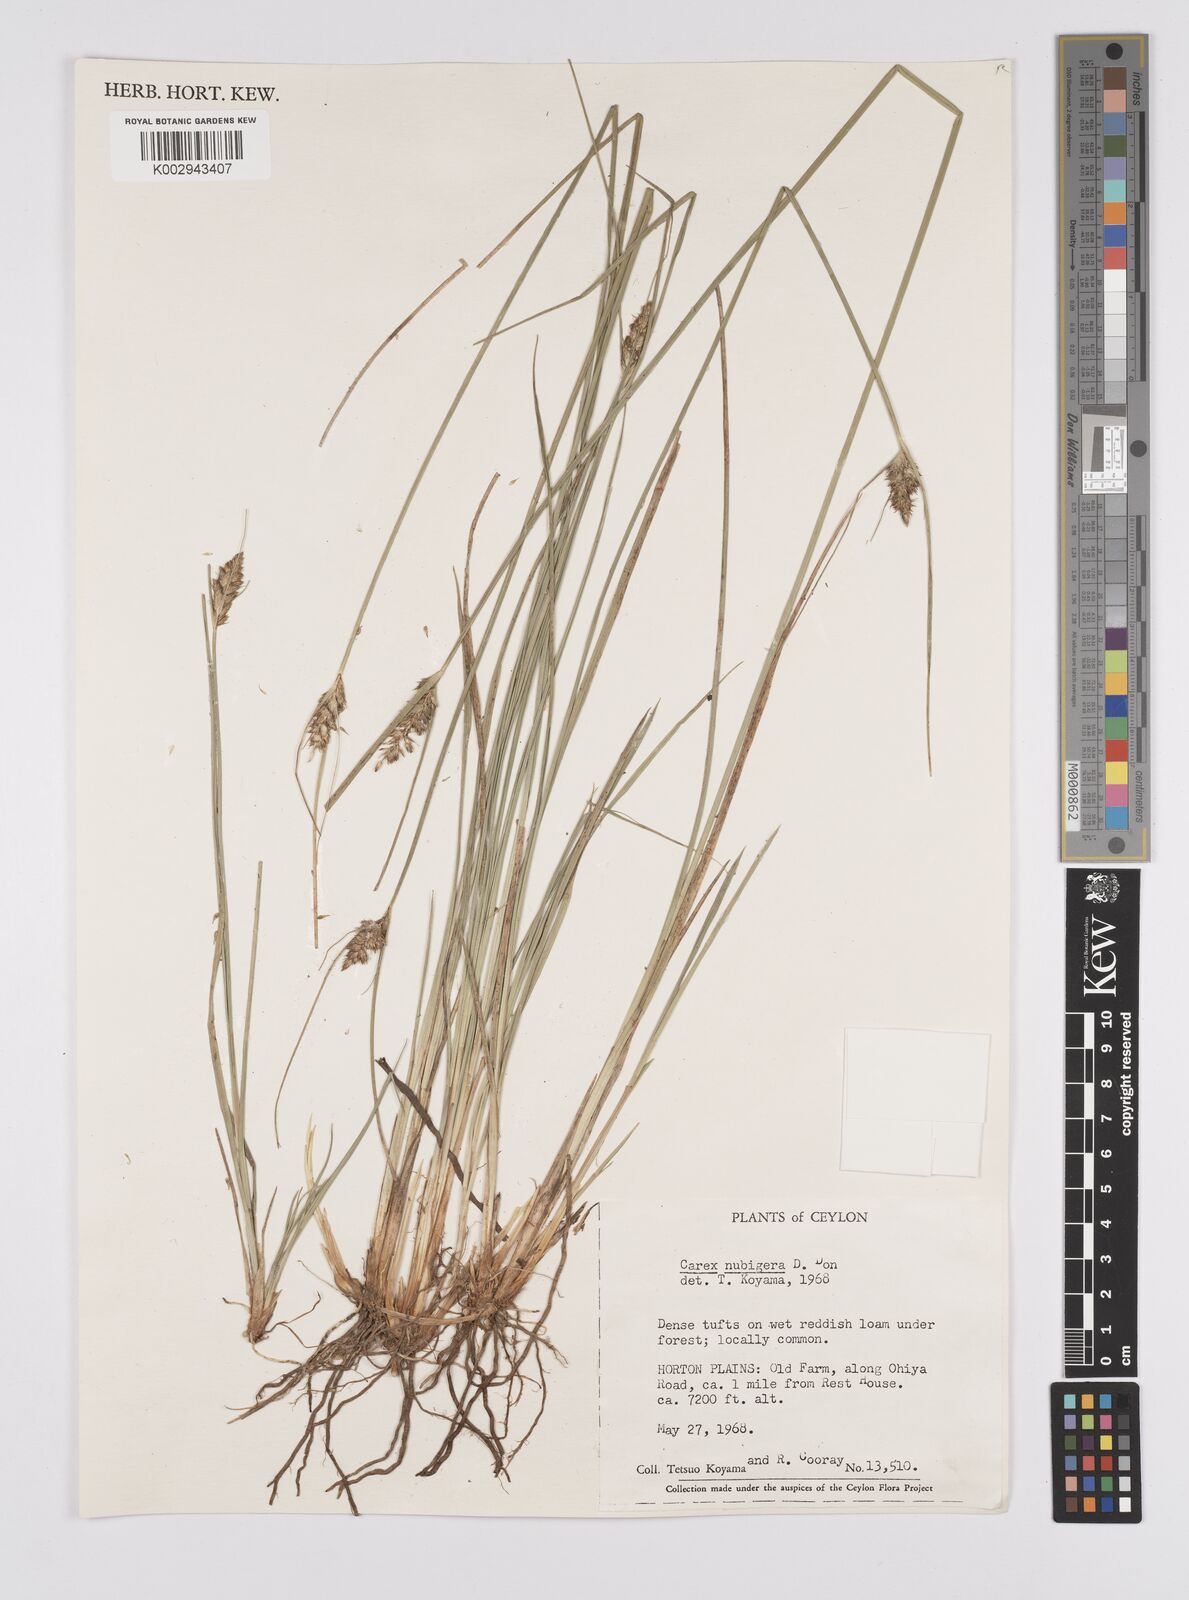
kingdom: Plantae
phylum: Tracheophyta
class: Liliopsida
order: Poales
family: Cyperaceae
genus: Carex
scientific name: Carex nubigena
